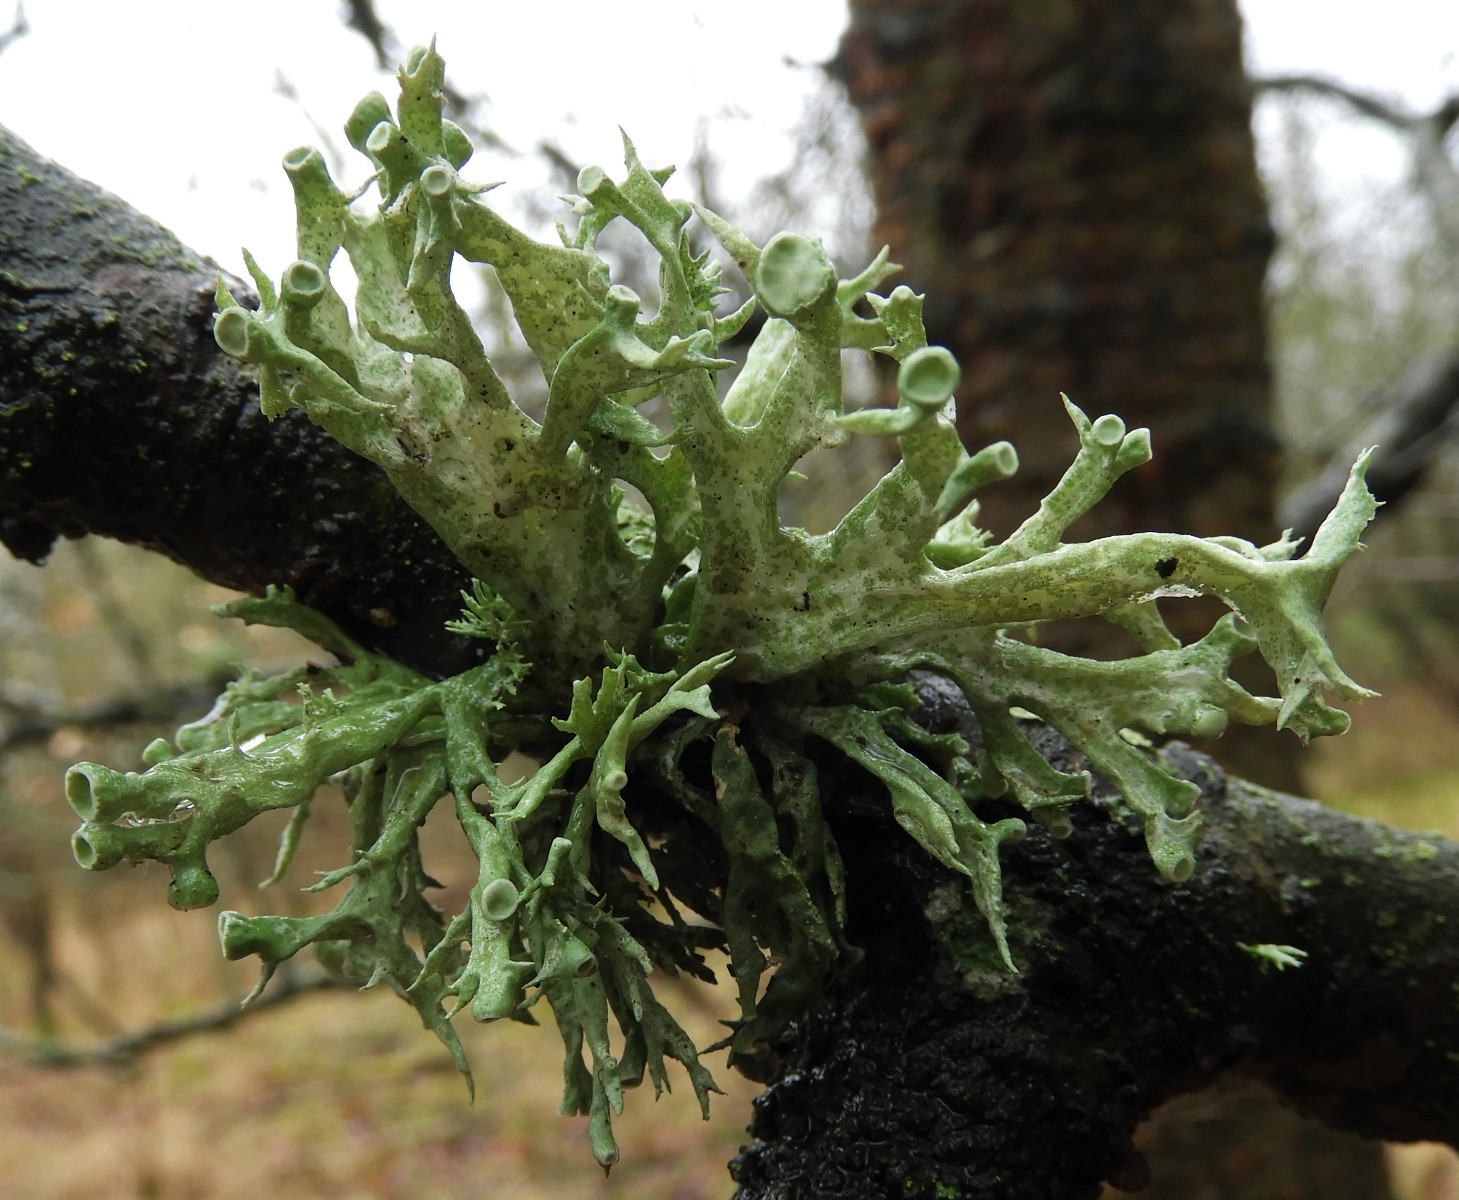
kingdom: Fungi
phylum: Ascomycota
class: Lecanoromycetes
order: Lecanorales
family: Ramalinaceae
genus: Ramalina
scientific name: Ramalina fastigiata
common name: tue-grenlav
